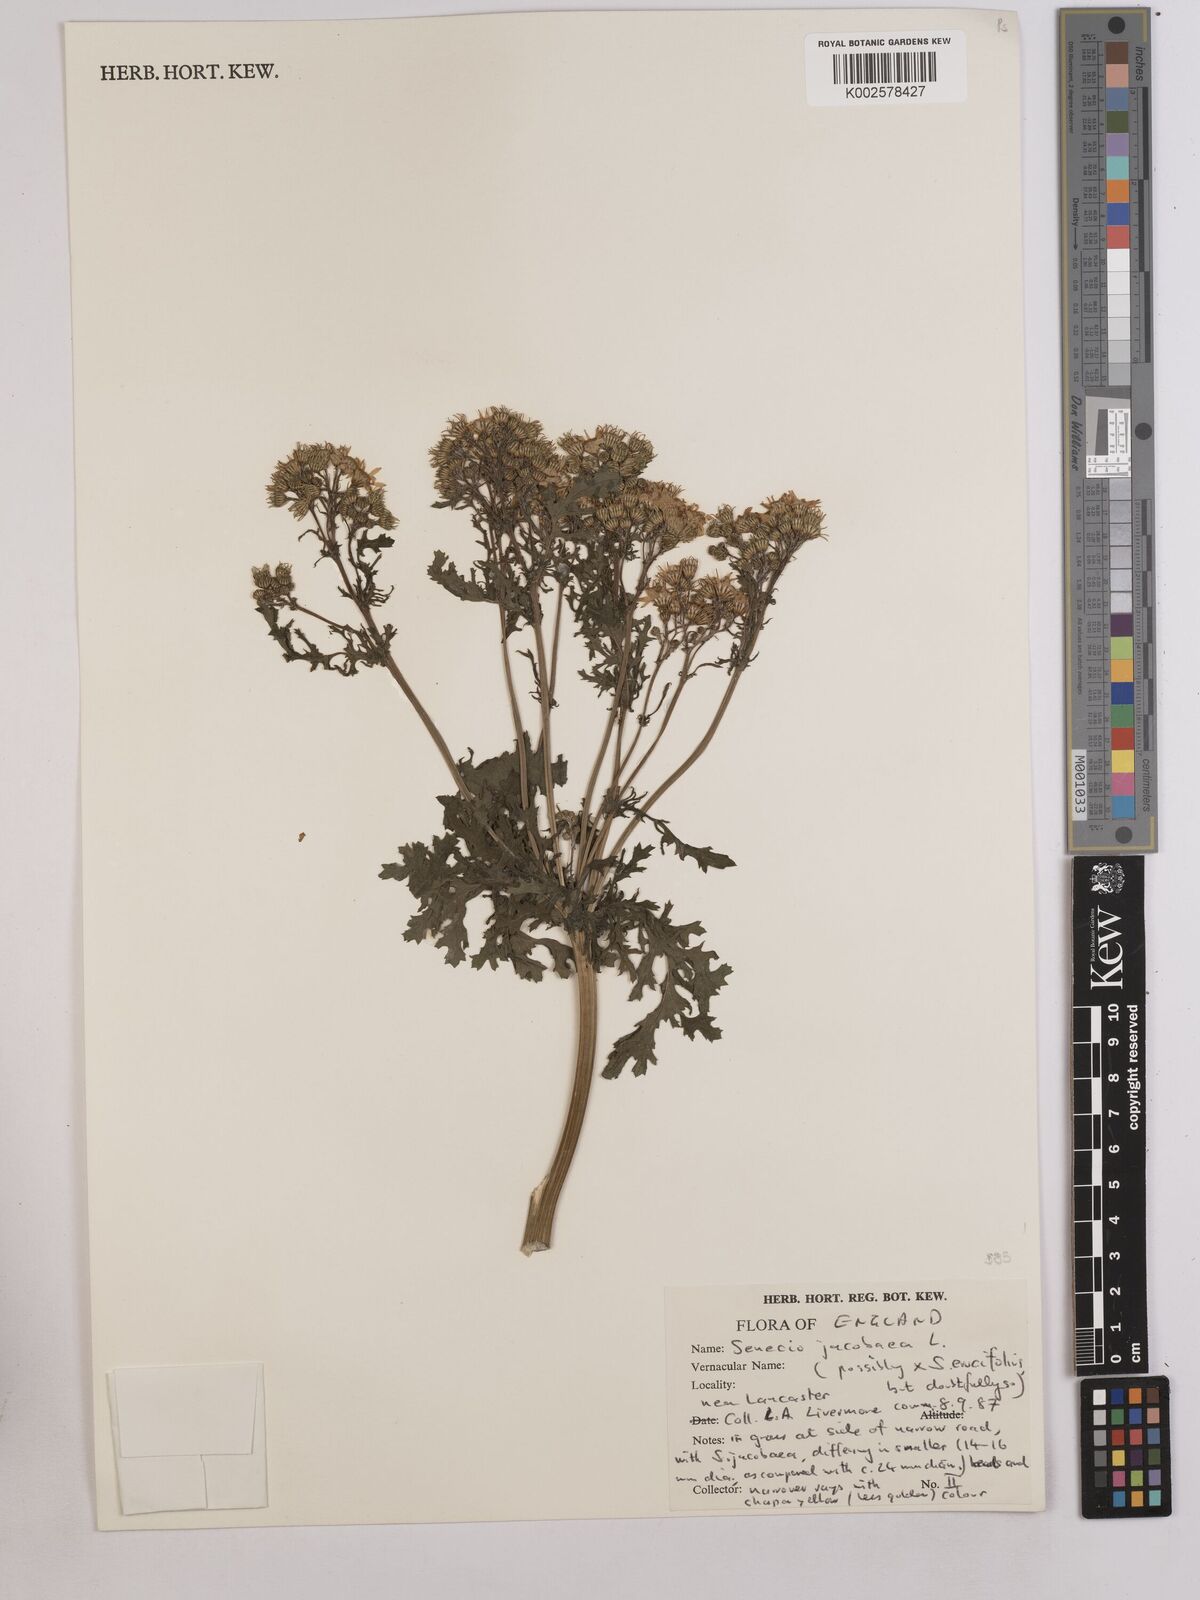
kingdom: Plantae
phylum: Tracheophyta
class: Magnoliopsida
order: Asterales
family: Asteraceae
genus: Jacobaea
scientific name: Jacobaea vulgaris
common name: Stinking willie
